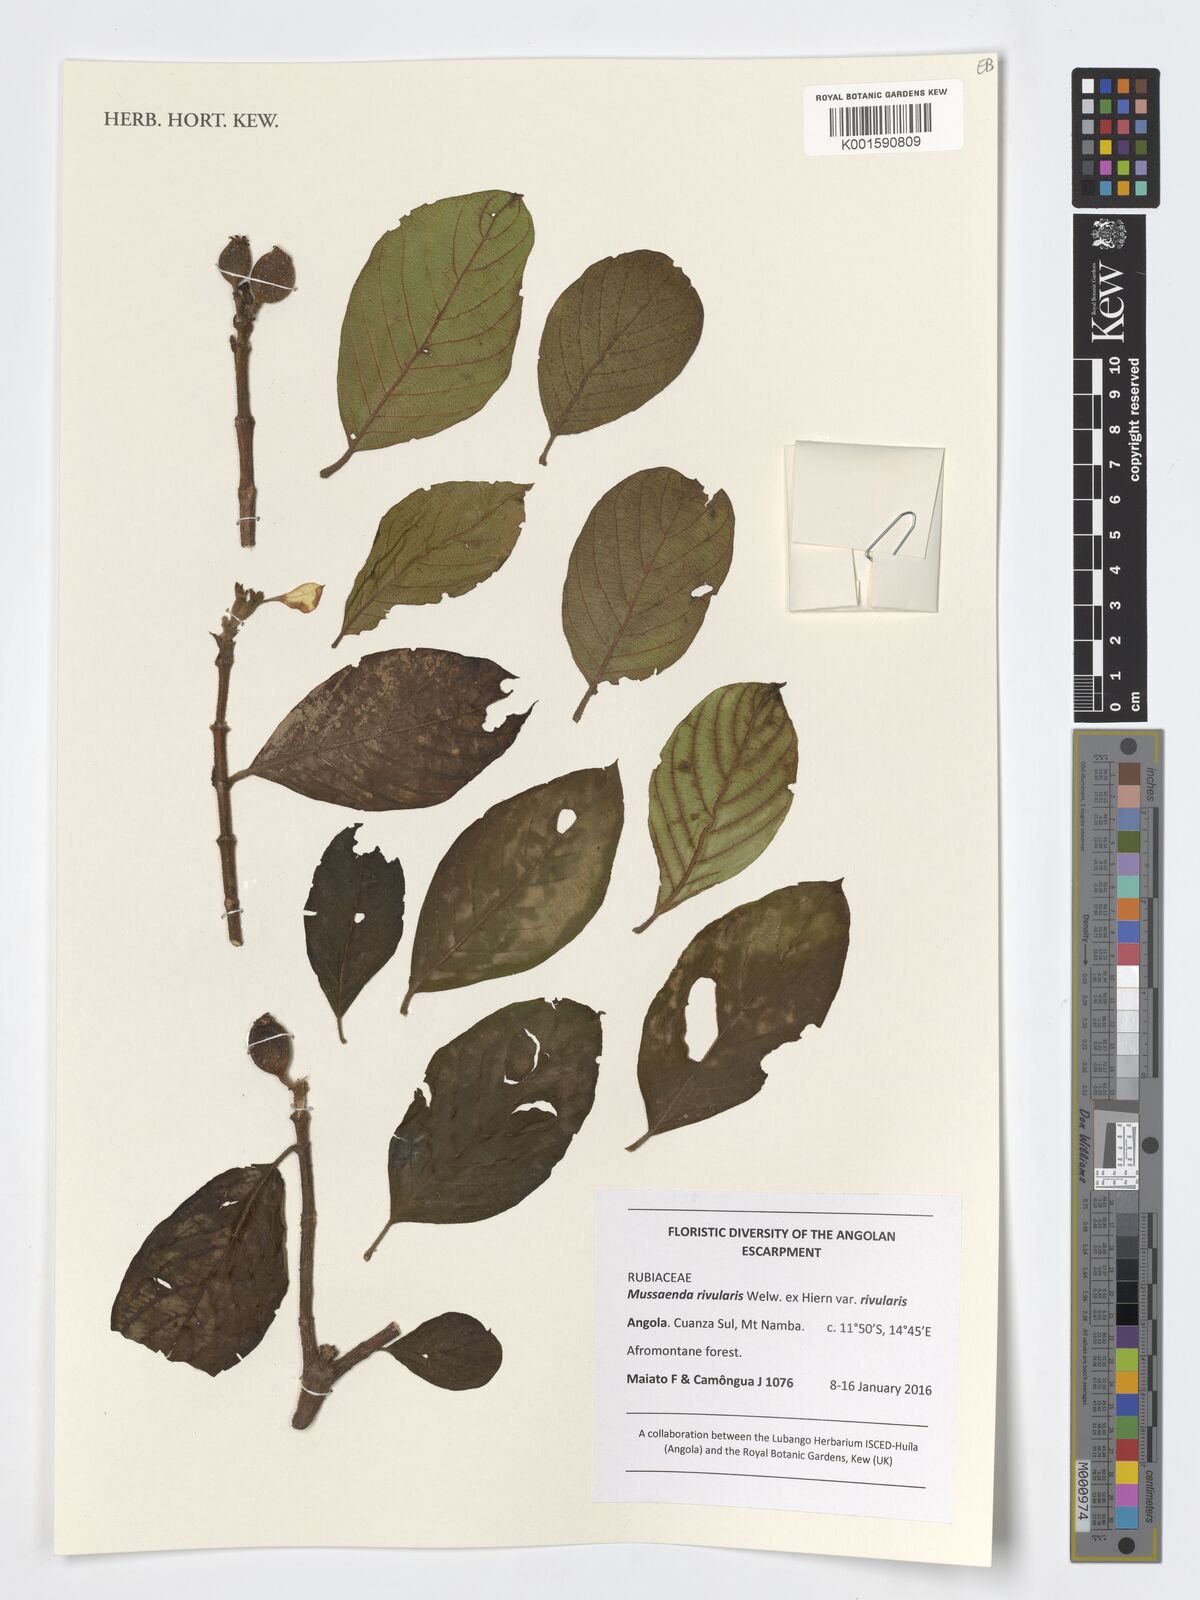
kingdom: Plantae
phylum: Tracheophyta
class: Magnoliopsida
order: Gentianales
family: Rubiaceae
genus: Mussaenda
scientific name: Mussaenda rivularis
